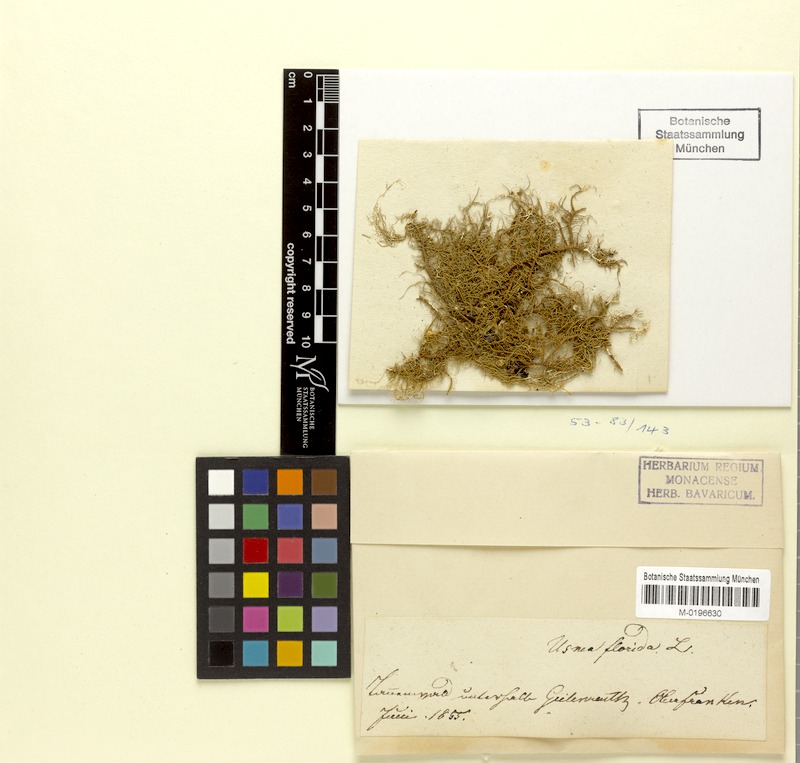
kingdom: Fungi
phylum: Ascomycota
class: Lecanoromycetes
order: Lecanorales
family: Parmeliaceae
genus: Usnea
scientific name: Usnea florida
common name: Witches' whiskers lichen
